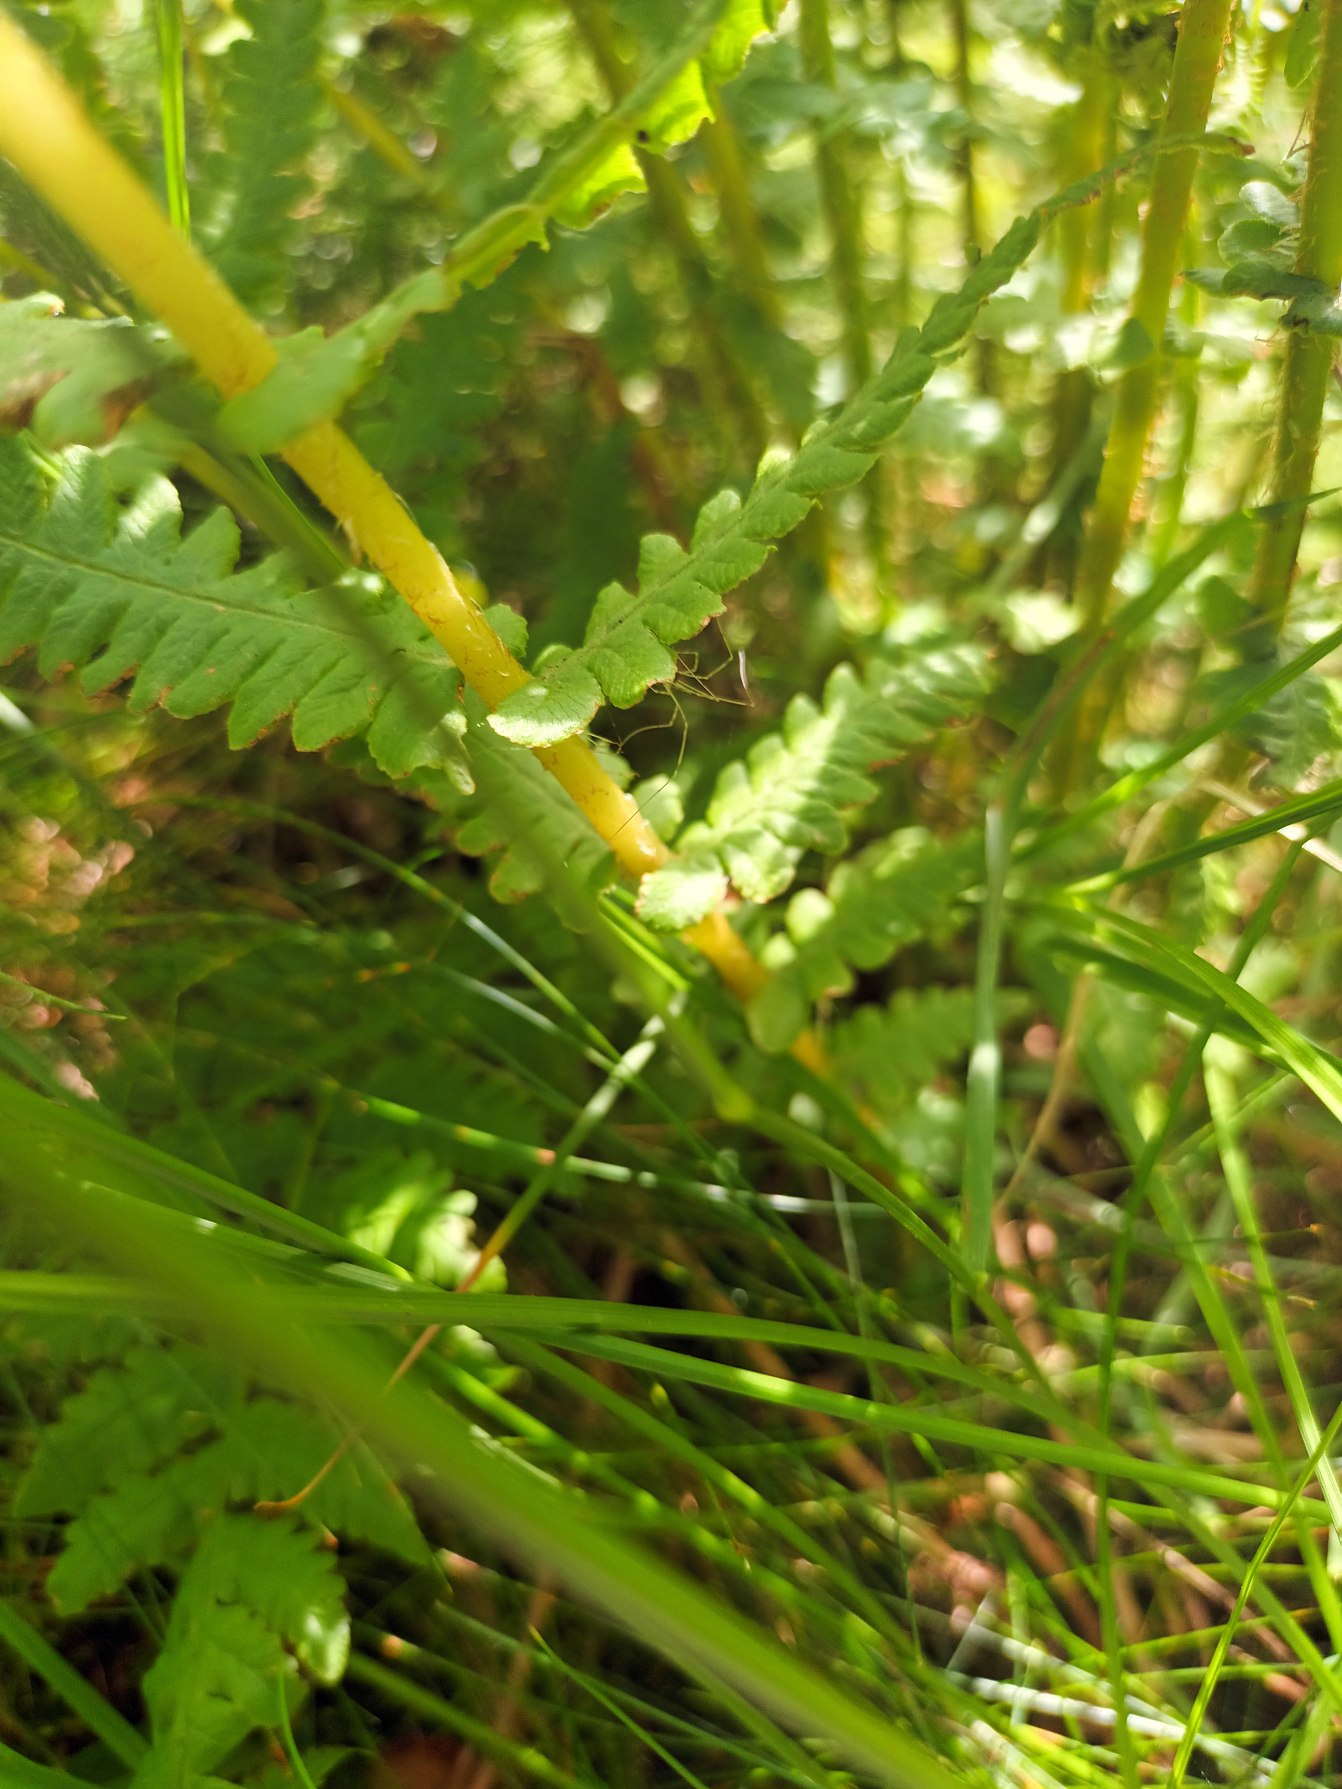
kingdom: Plantae
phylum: Tracheophyta
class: Polypodiopsida
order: Polypodiales
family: Thelypteridaceae
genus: Oreopteris
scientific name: Oreopteris limbosperma
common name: Bjergmangeløv
